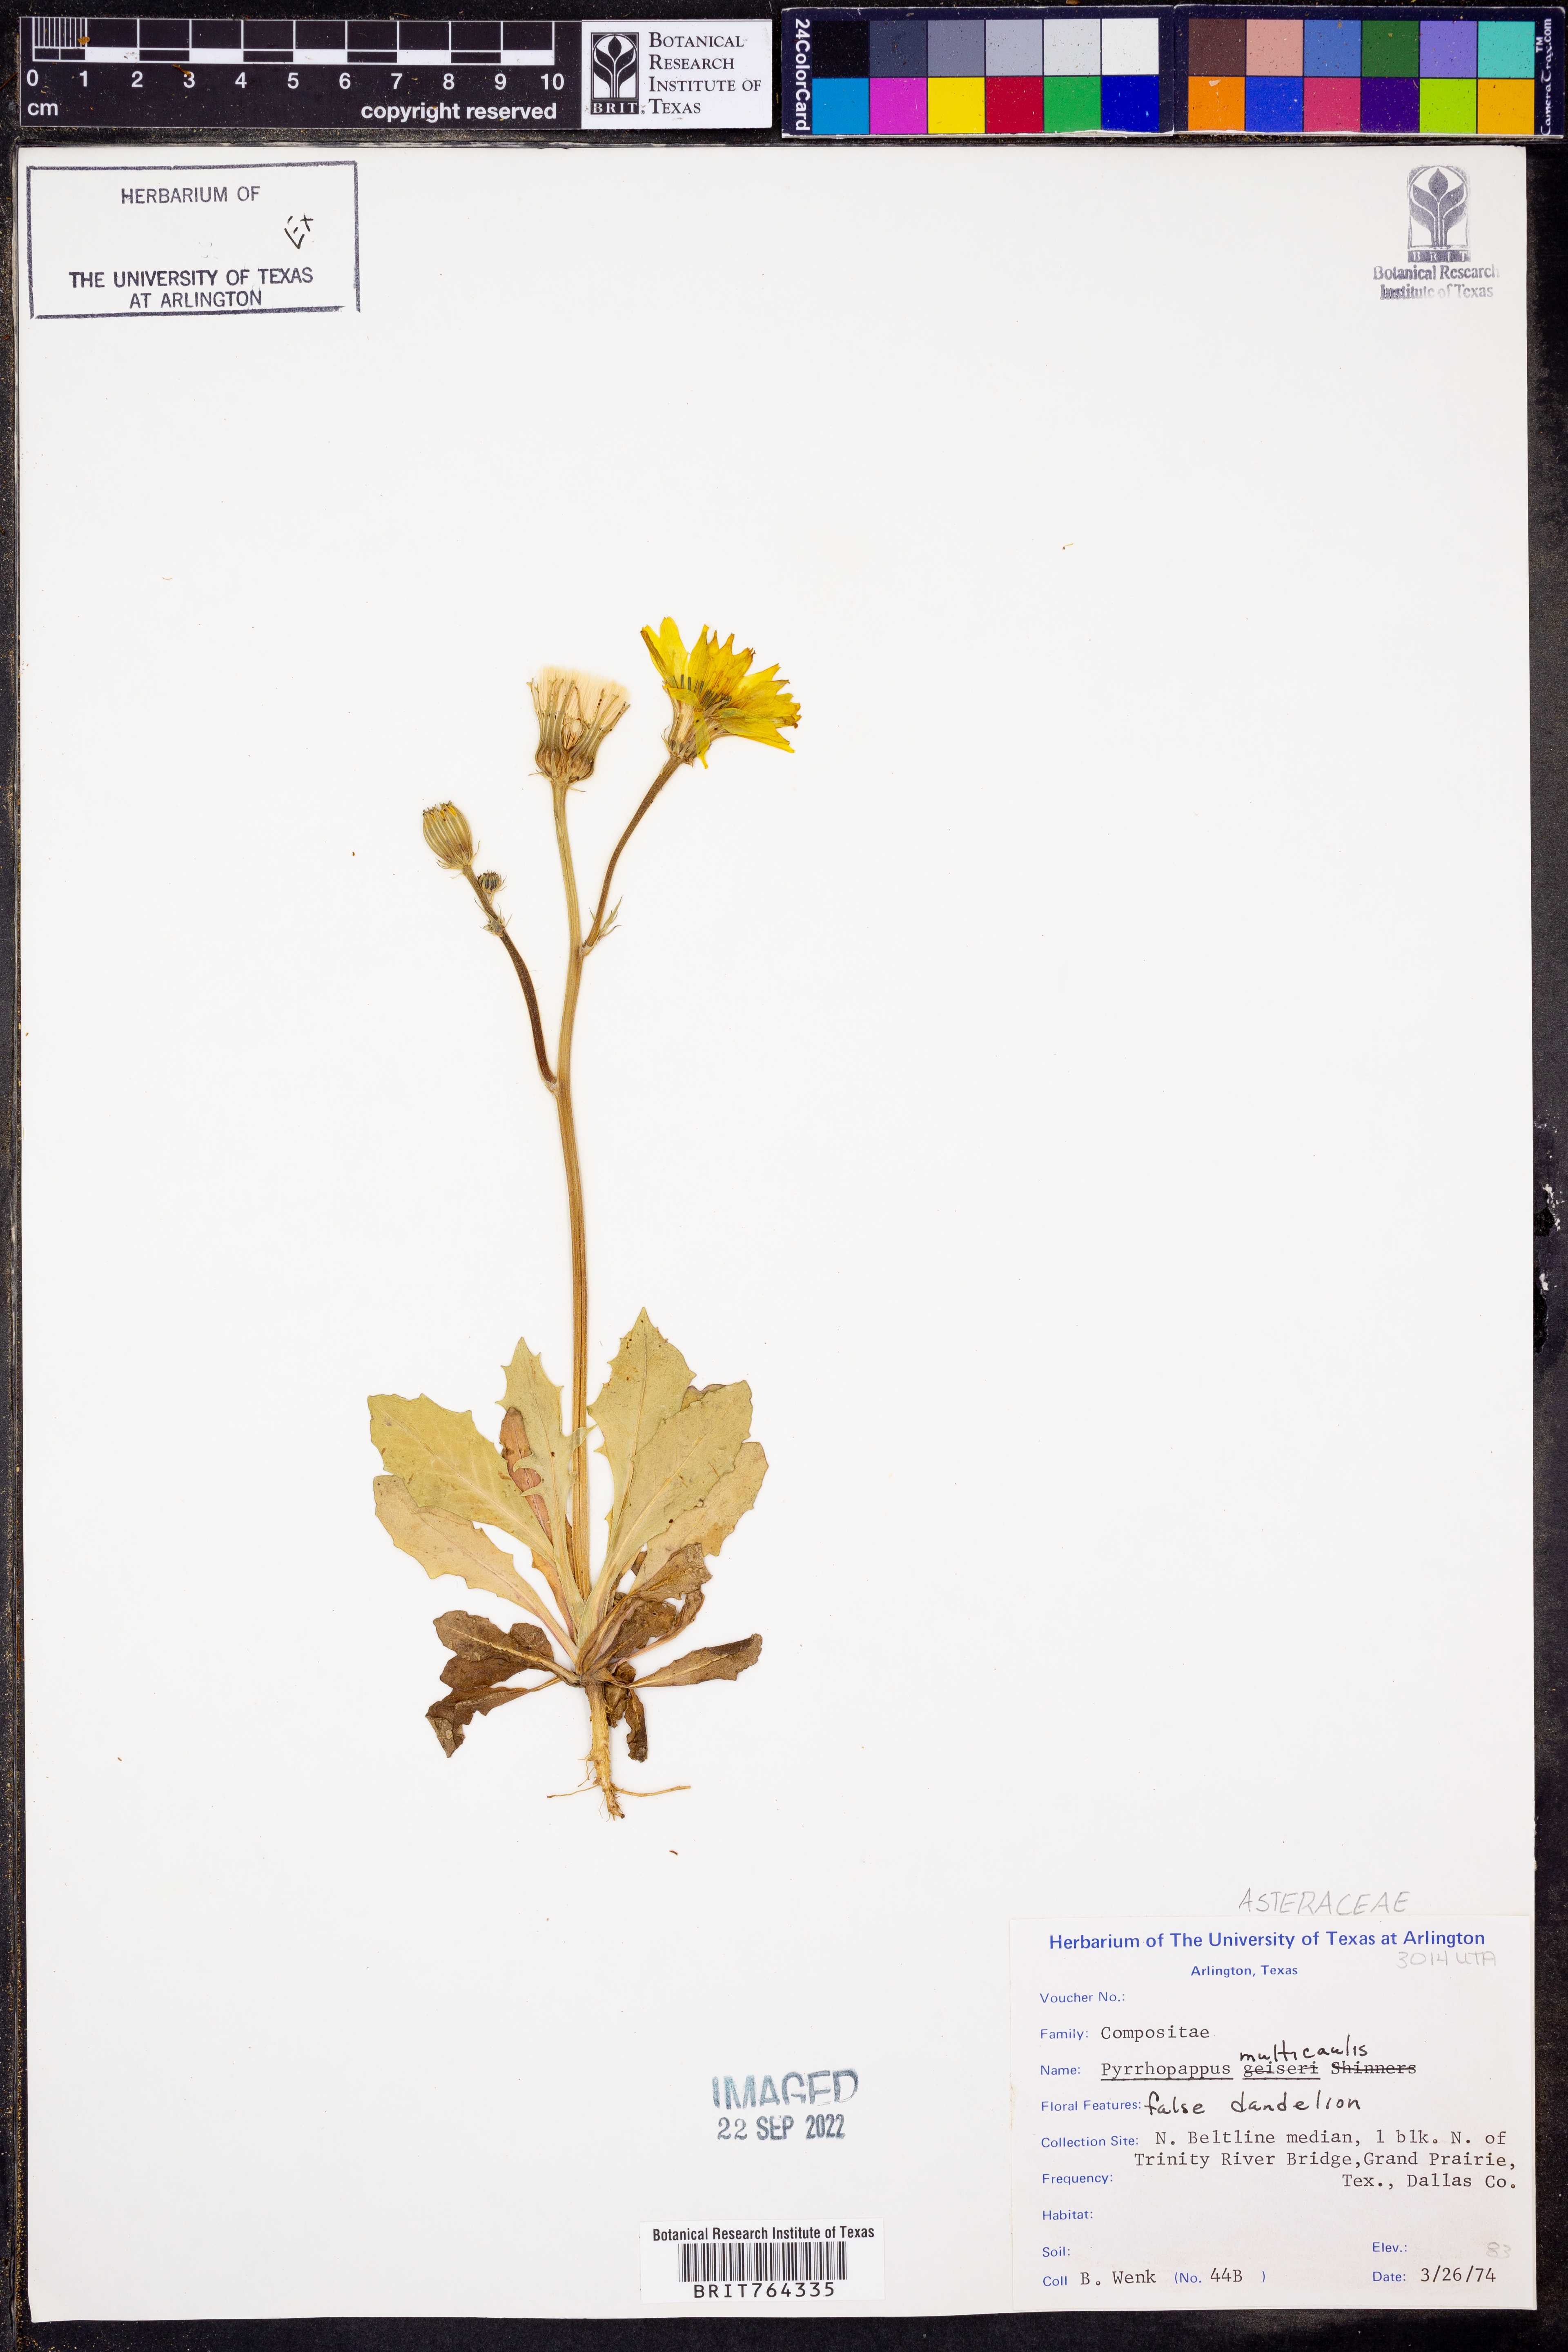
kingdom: Plantae
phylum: Tracheophyta
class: Magnoliopsida
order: Asterales
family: Asteraceae
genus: Pyrrhopappus
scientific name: Pyrrhopappus pauciflorus
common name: Texas false dandelion
